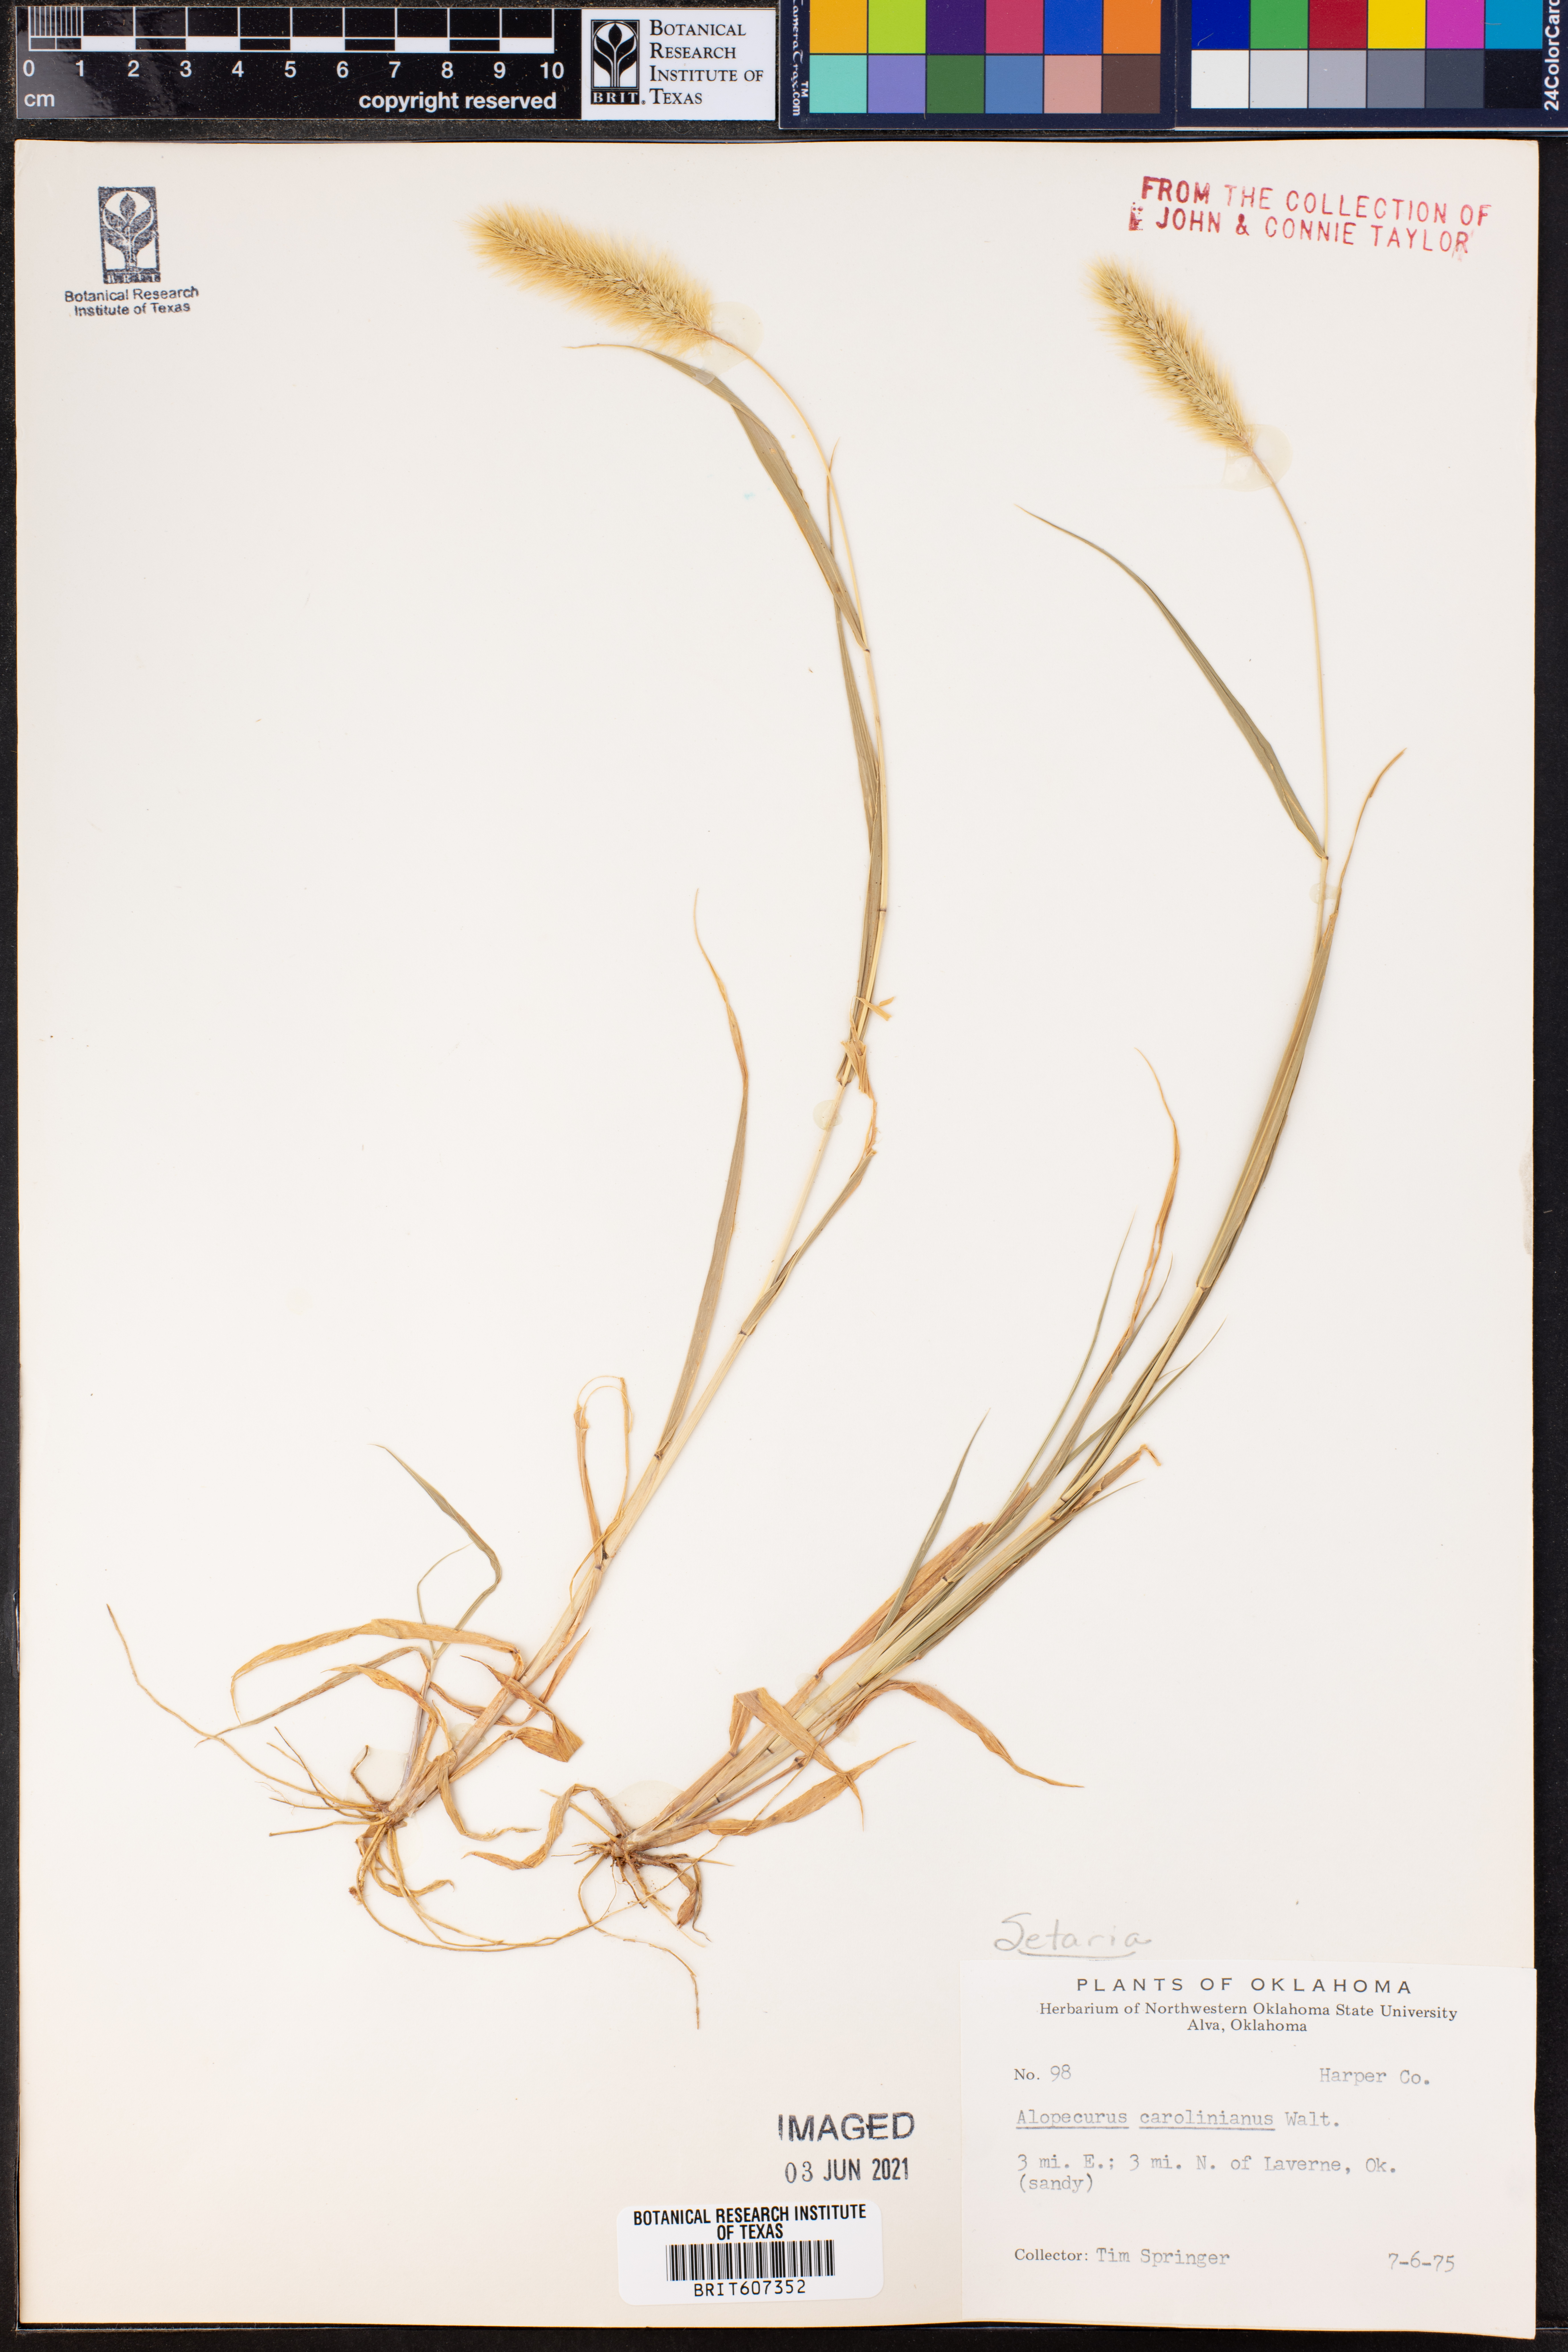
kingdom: Plantae
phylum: Tracheophyta
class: Liliopsida
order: Poales
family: Poaceae
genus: Setaria
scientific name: Setaria
